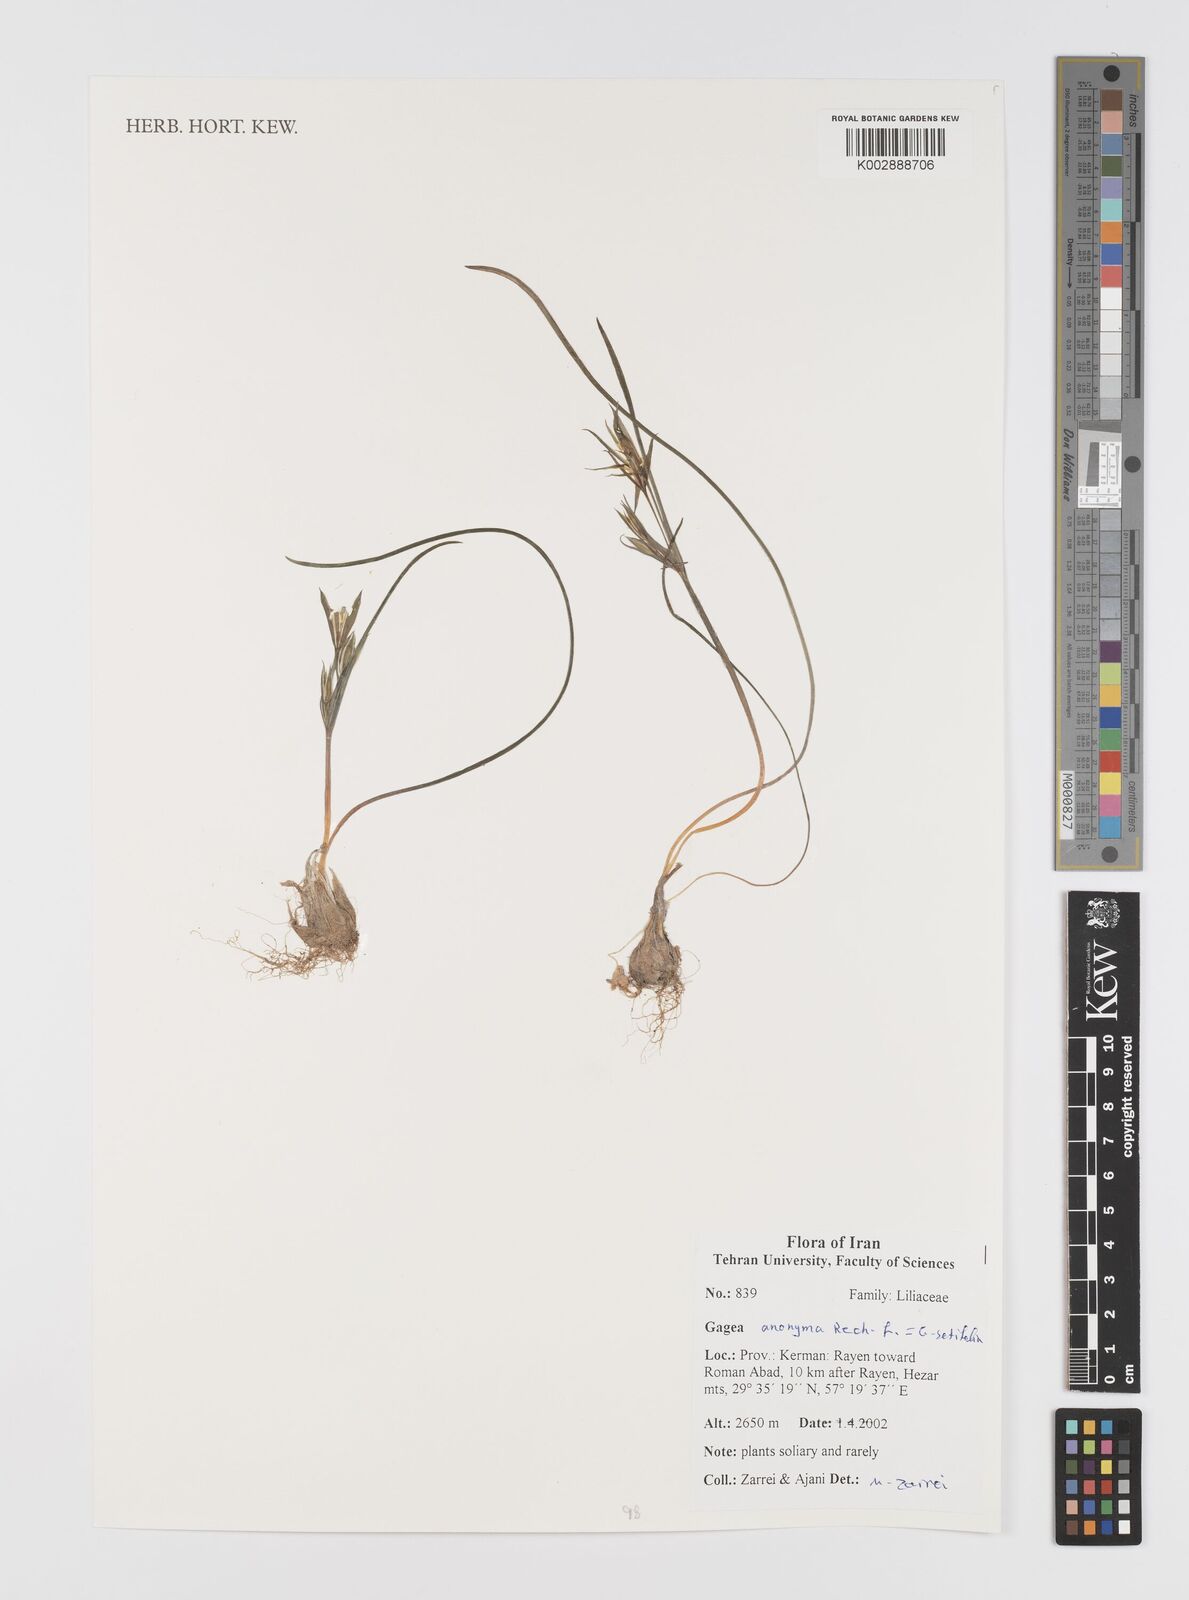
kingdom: Plantae
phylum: Tracheophyta
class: Liliopsida
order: Liliales
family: Liliaceae
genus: Gagea
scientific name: Gagea setifolia
